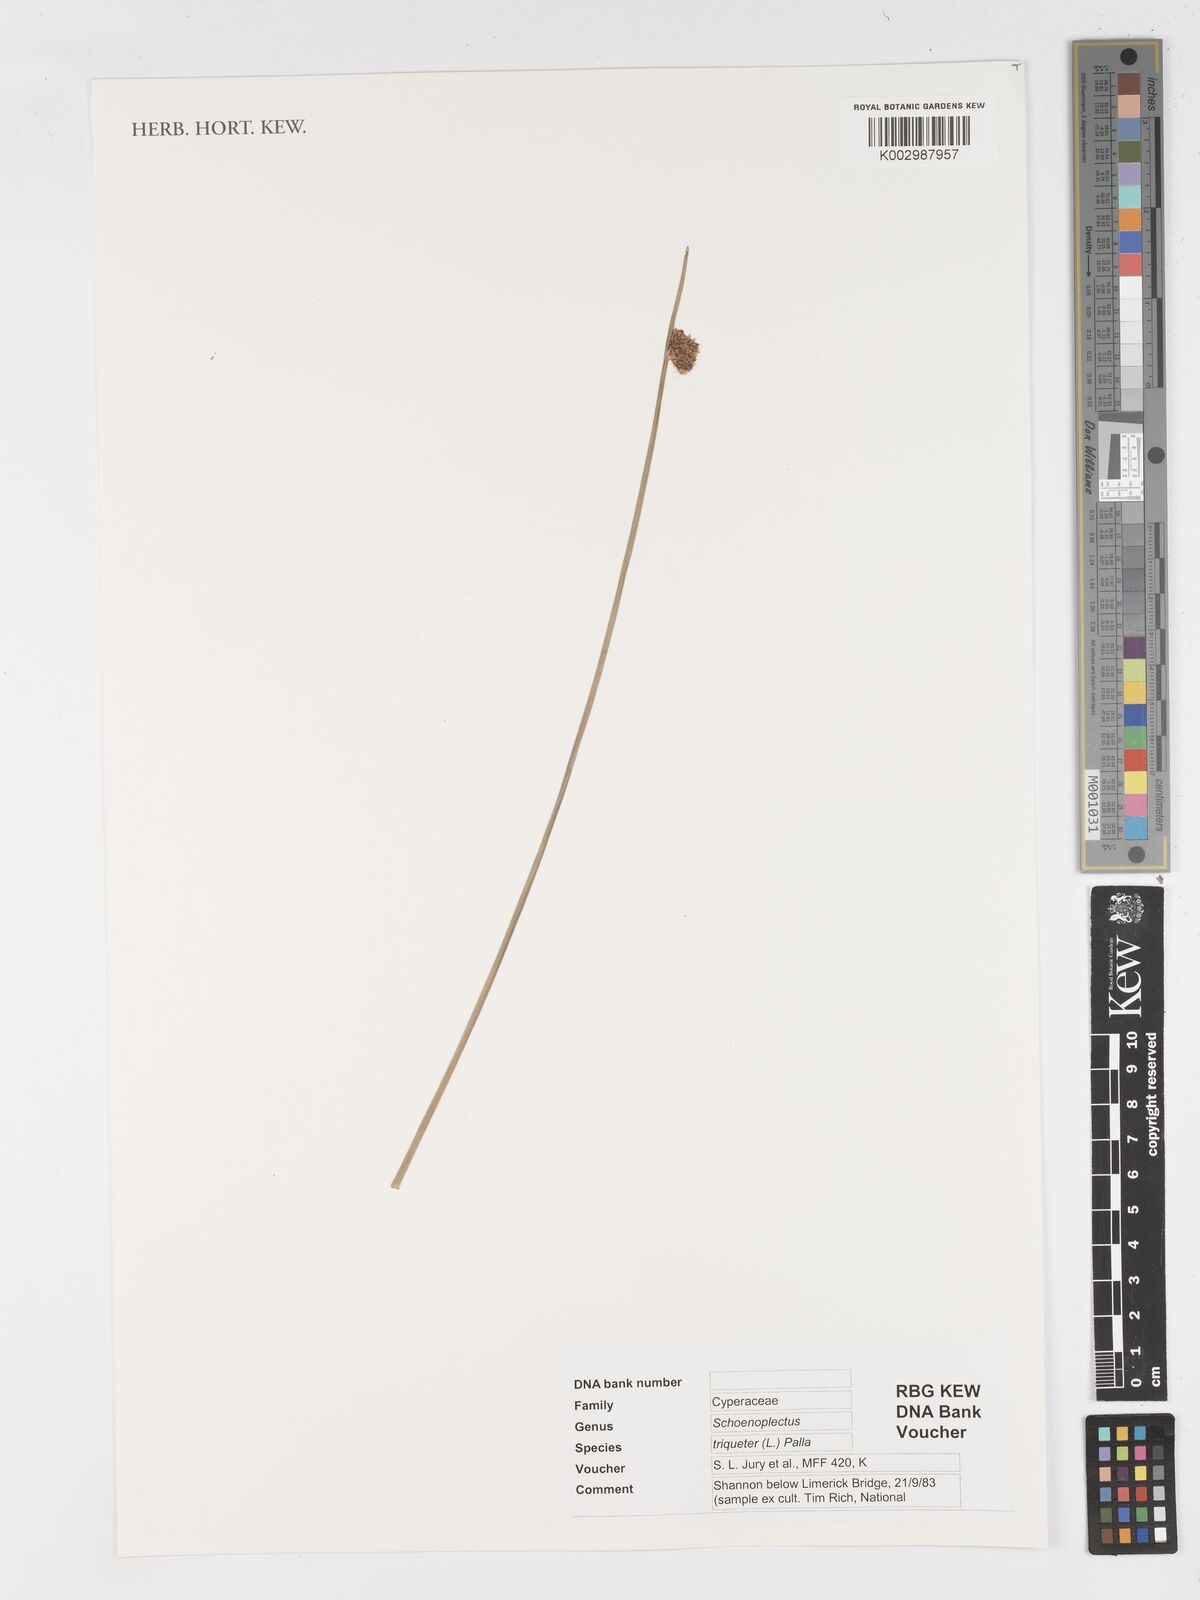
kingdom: Plantae
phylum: Tracheophyta
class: Liliopsida
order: Poales
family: Cyperaceae
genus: Schoenoplectus
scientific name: Schoenoplectus triqueter
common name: Triangular club-rush
